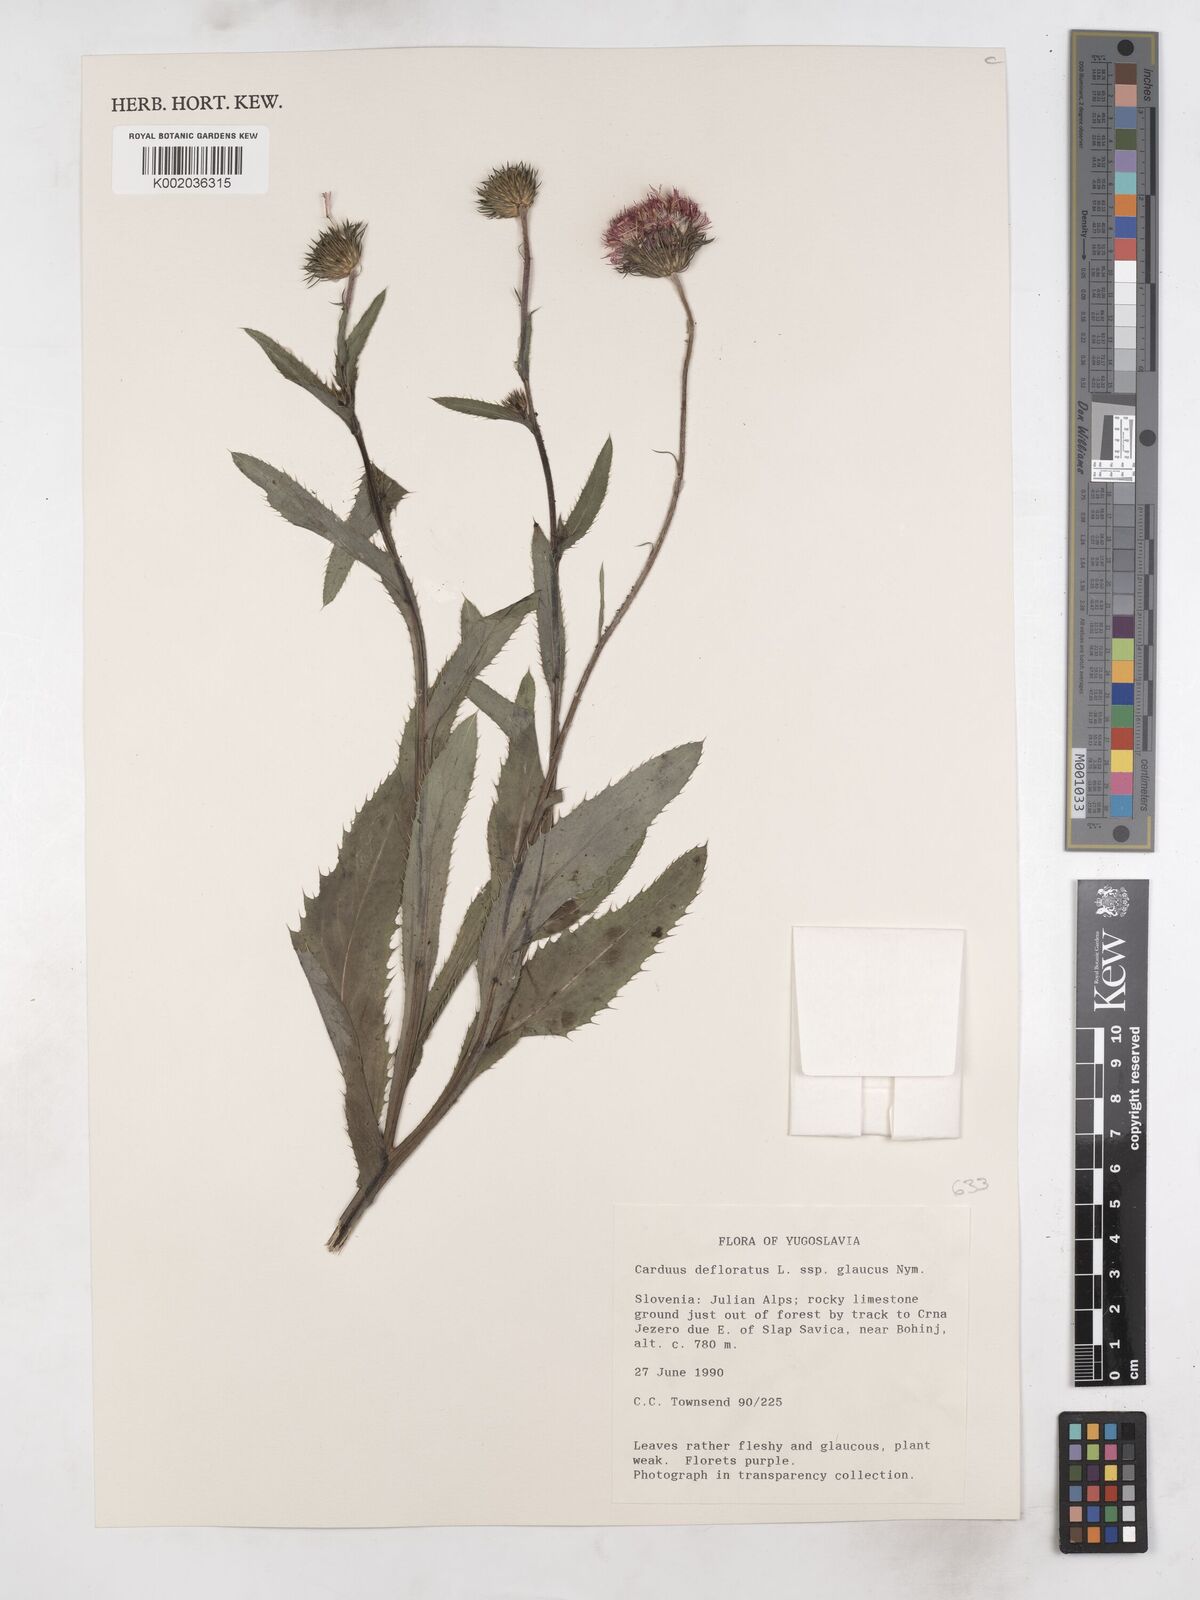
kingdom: Plantae
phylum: Tracheophyta
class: Magnoliopsida
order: Asterales
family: Asteraceae
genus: Carduus
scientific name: Carduus defloratus
